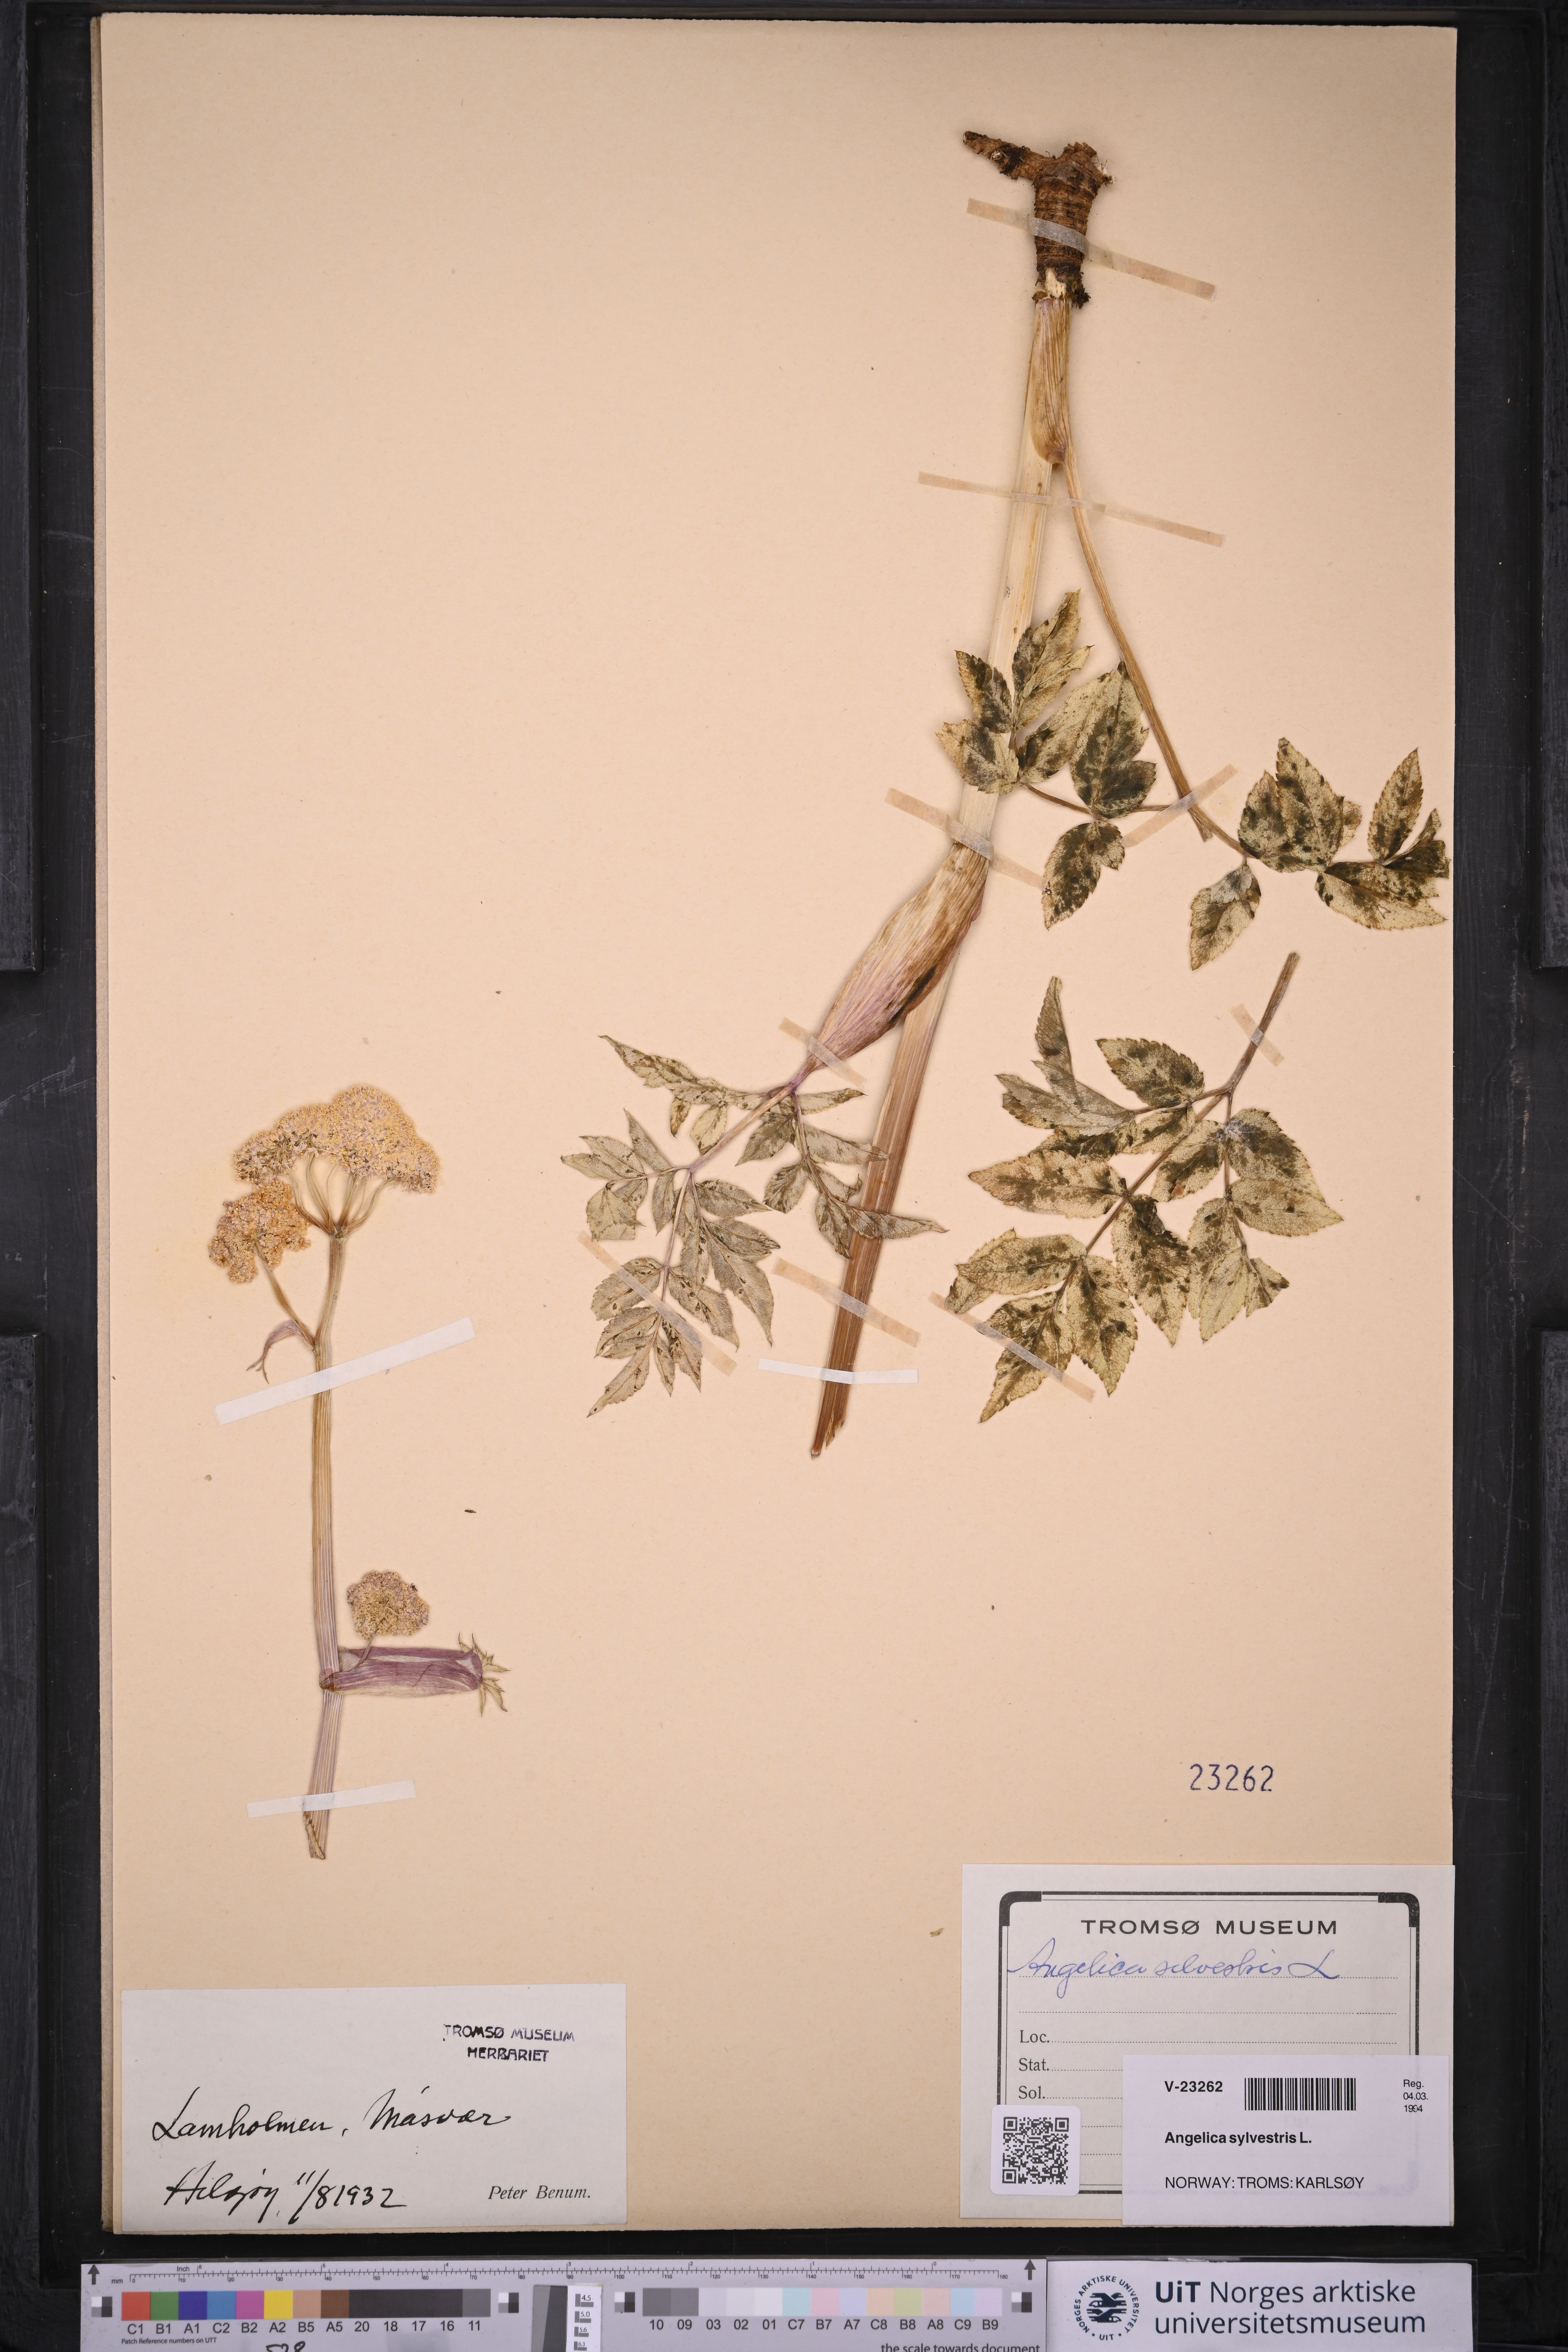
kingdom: Plantae
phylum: Tracheophyta
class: Magnoliopsida
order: Apiales
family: Apiaceae
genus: Angelica
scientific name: Angelica sylvestris
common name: Wild angelica
